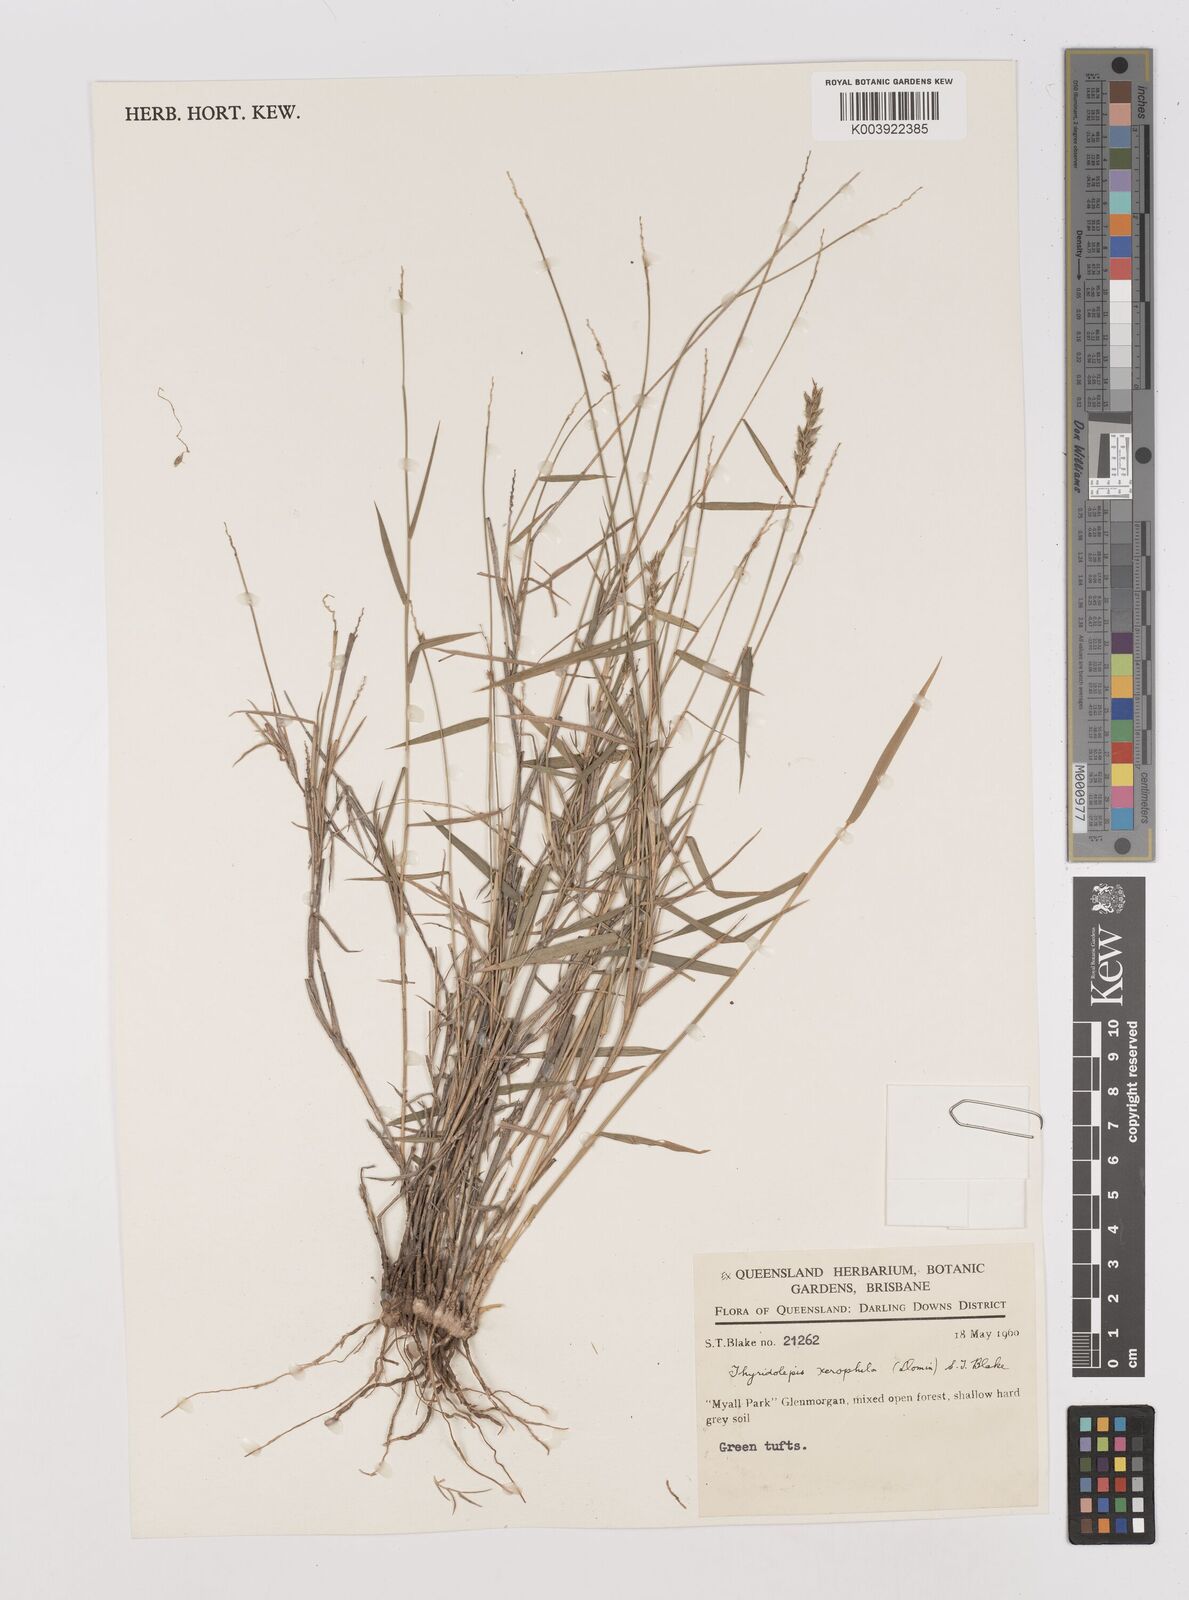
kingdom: Plantae
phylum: Tracheophyta
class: Liliopsida
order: Poales
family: Poaceae
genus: Thyridolepis
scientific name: Thyridolepis xerophila
